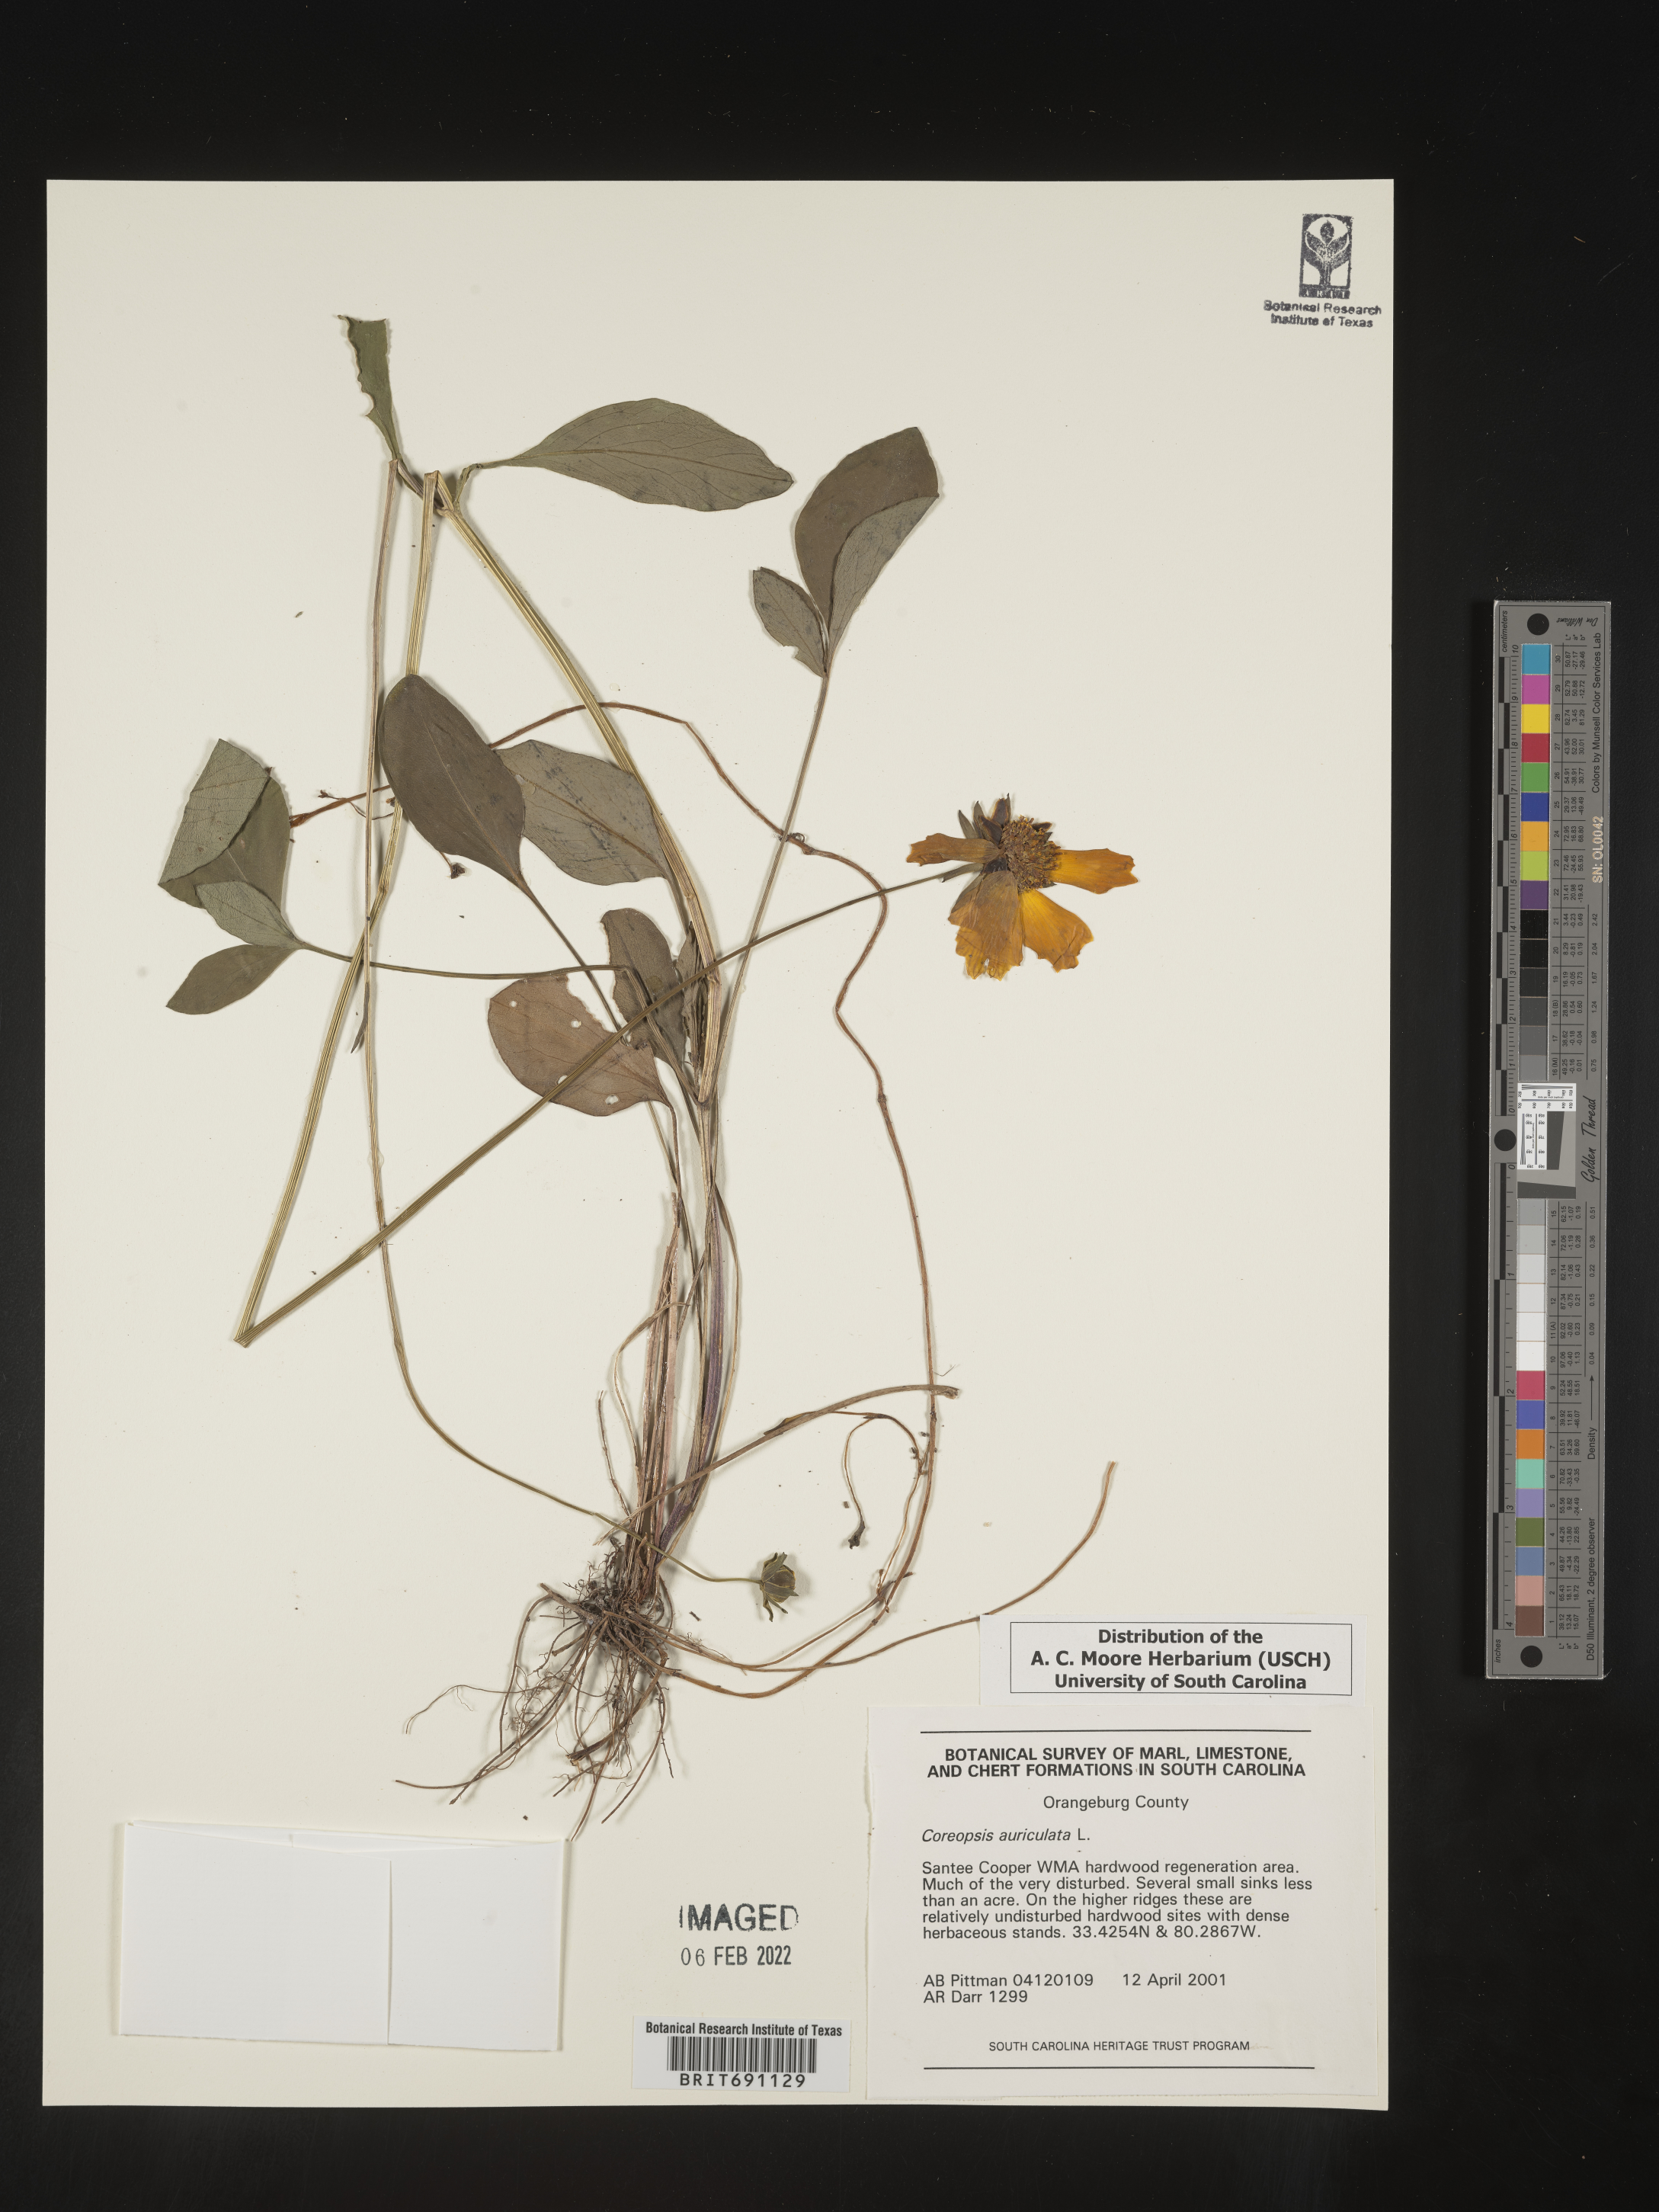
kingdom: Plantae
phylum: Tracheophyta
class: Magnoliopsida
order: Asterales
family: Asteraceae
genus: Coreopsis
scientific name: Coreopsis auriculata
